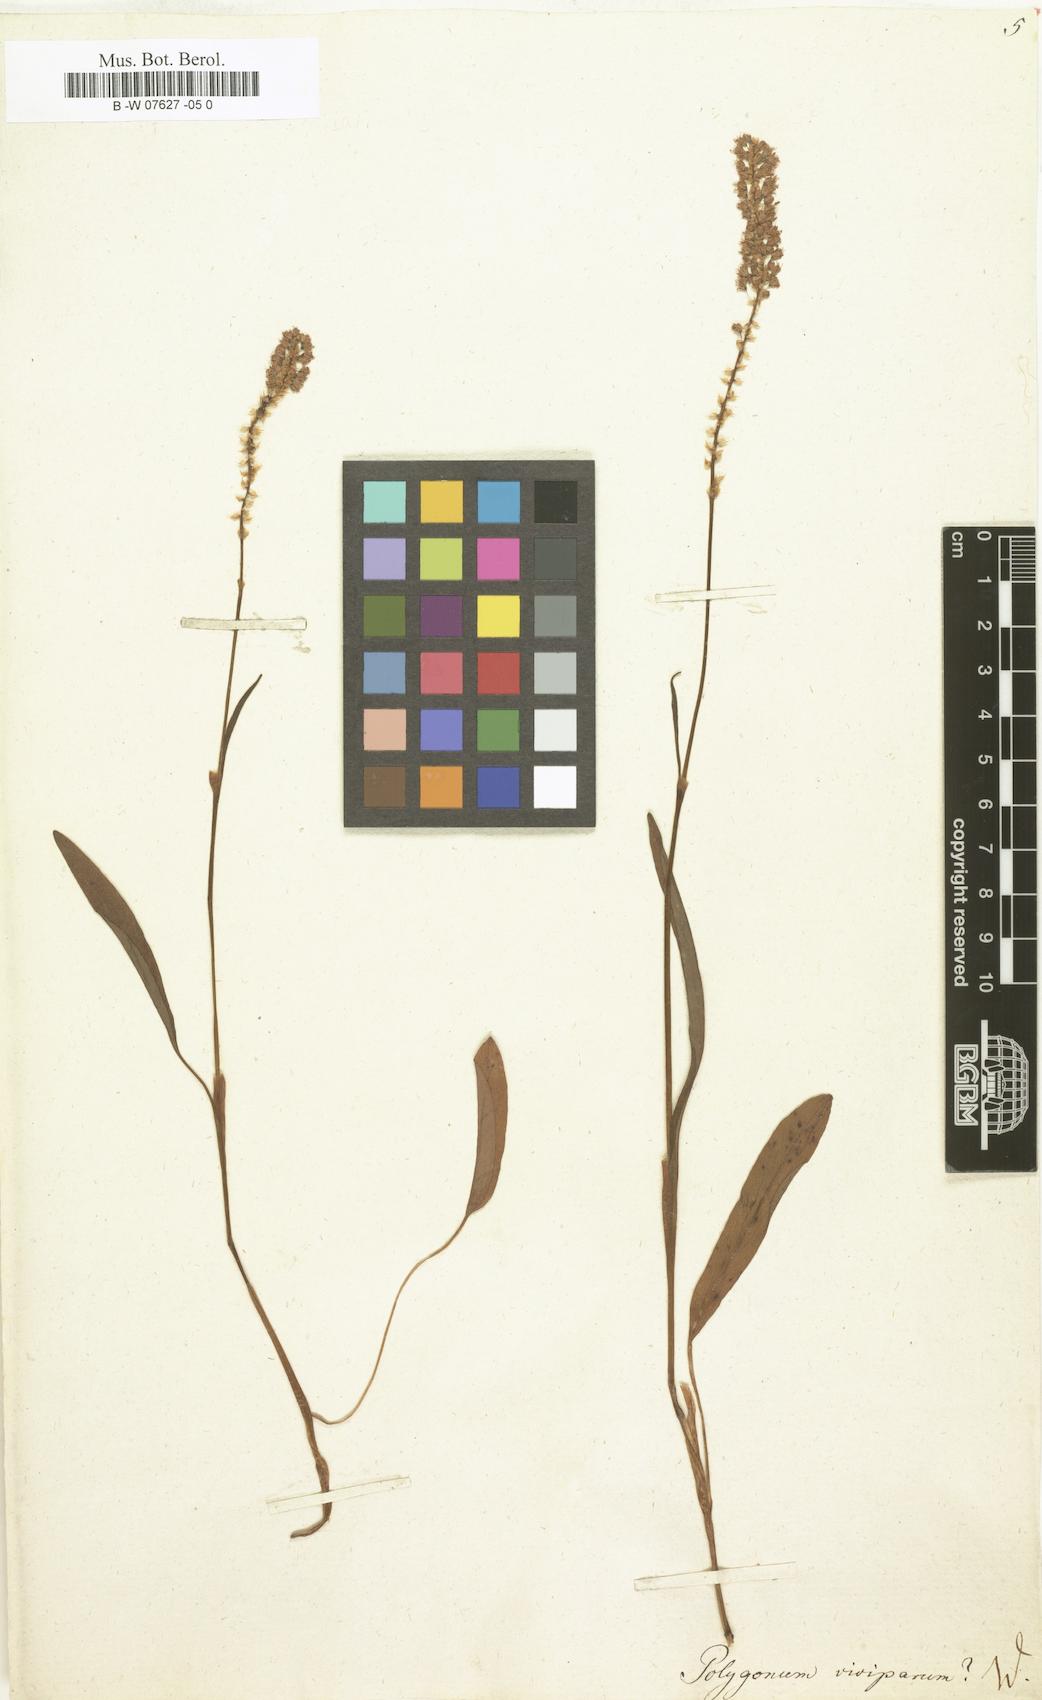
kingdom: Plantae
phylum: Tracheophyta
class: Magnoliopsida
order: Caryophyllales
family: Polygonaceae
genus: Bistorta
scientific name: Bistorta vivipara
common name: Alpine bistort
